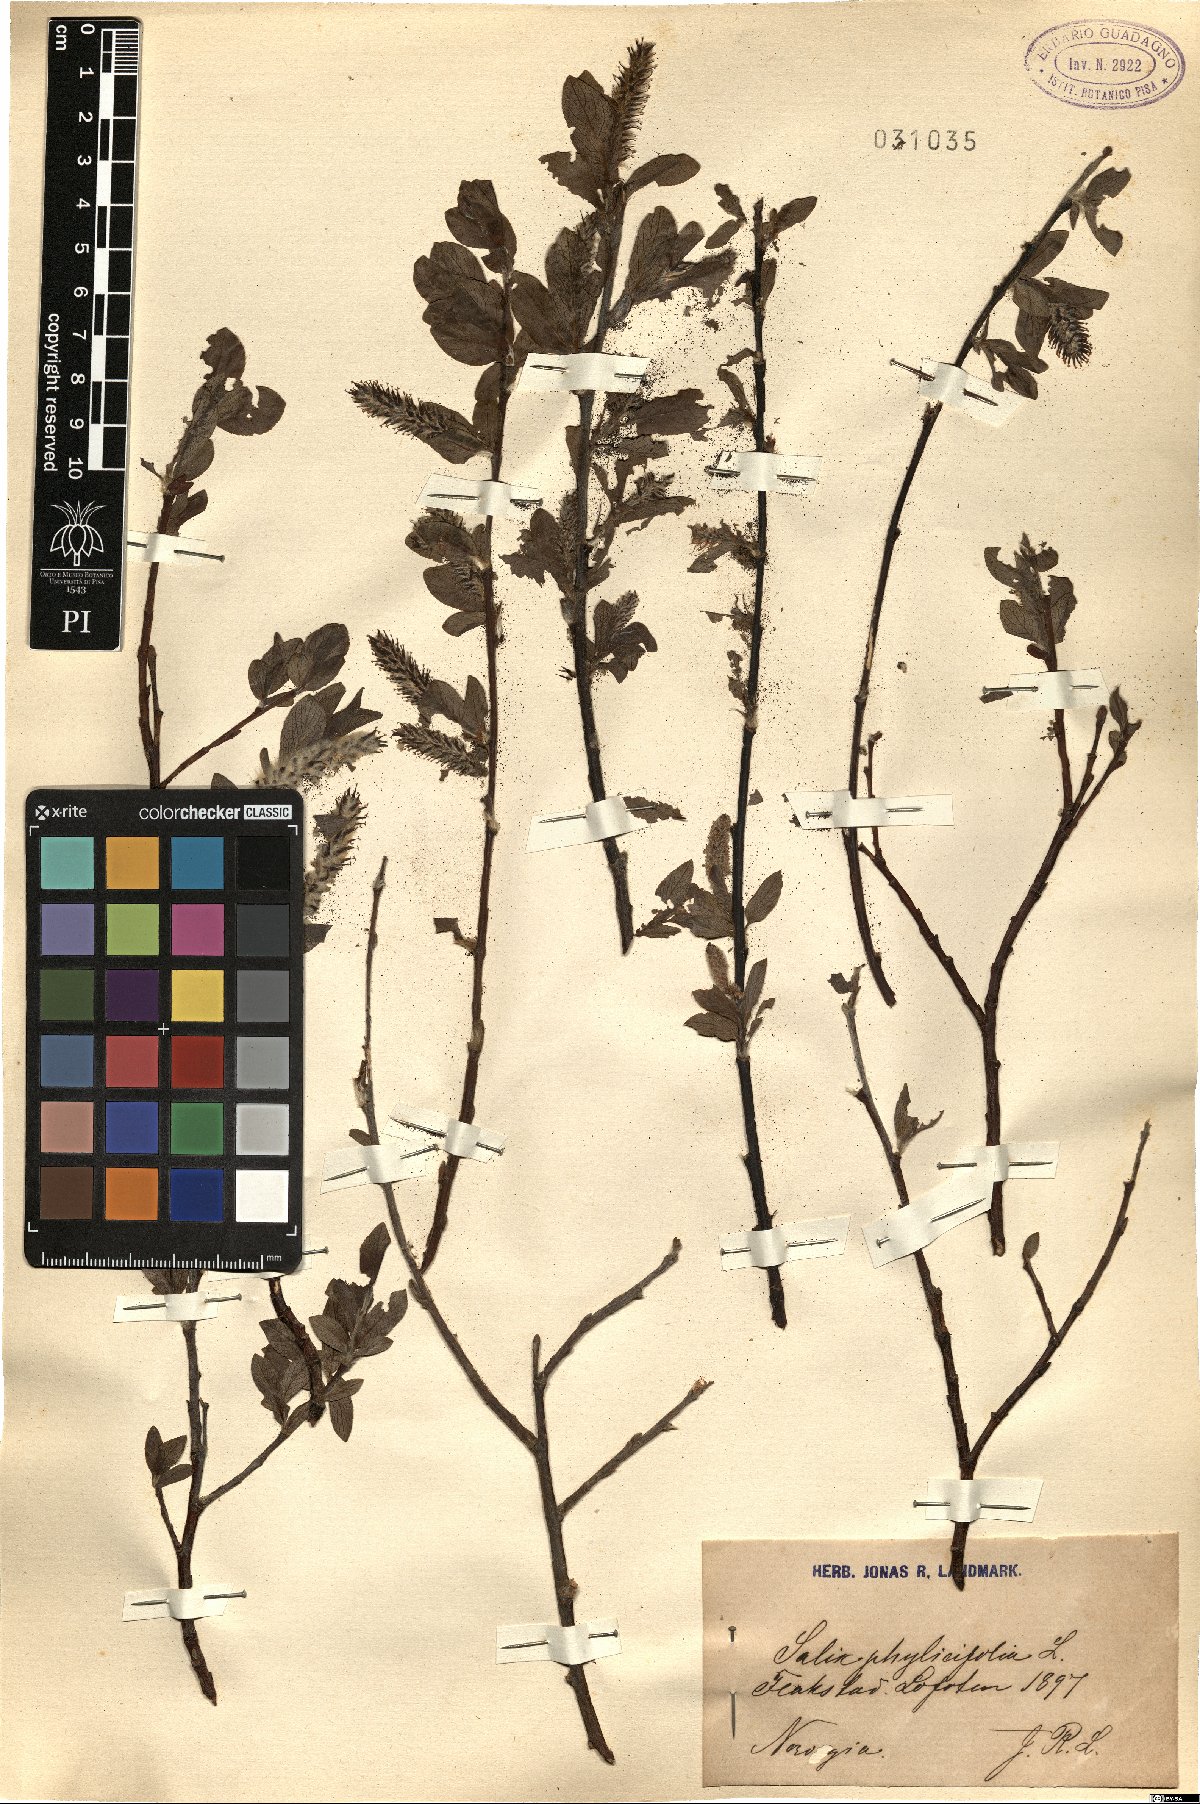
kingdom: Plantae
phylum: Tracheophyta
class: Magnoliopsida
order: Malpighiales
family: Salicaceae
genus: Salix
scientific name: Salix phylicifolia
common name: Tea-leaved willow
